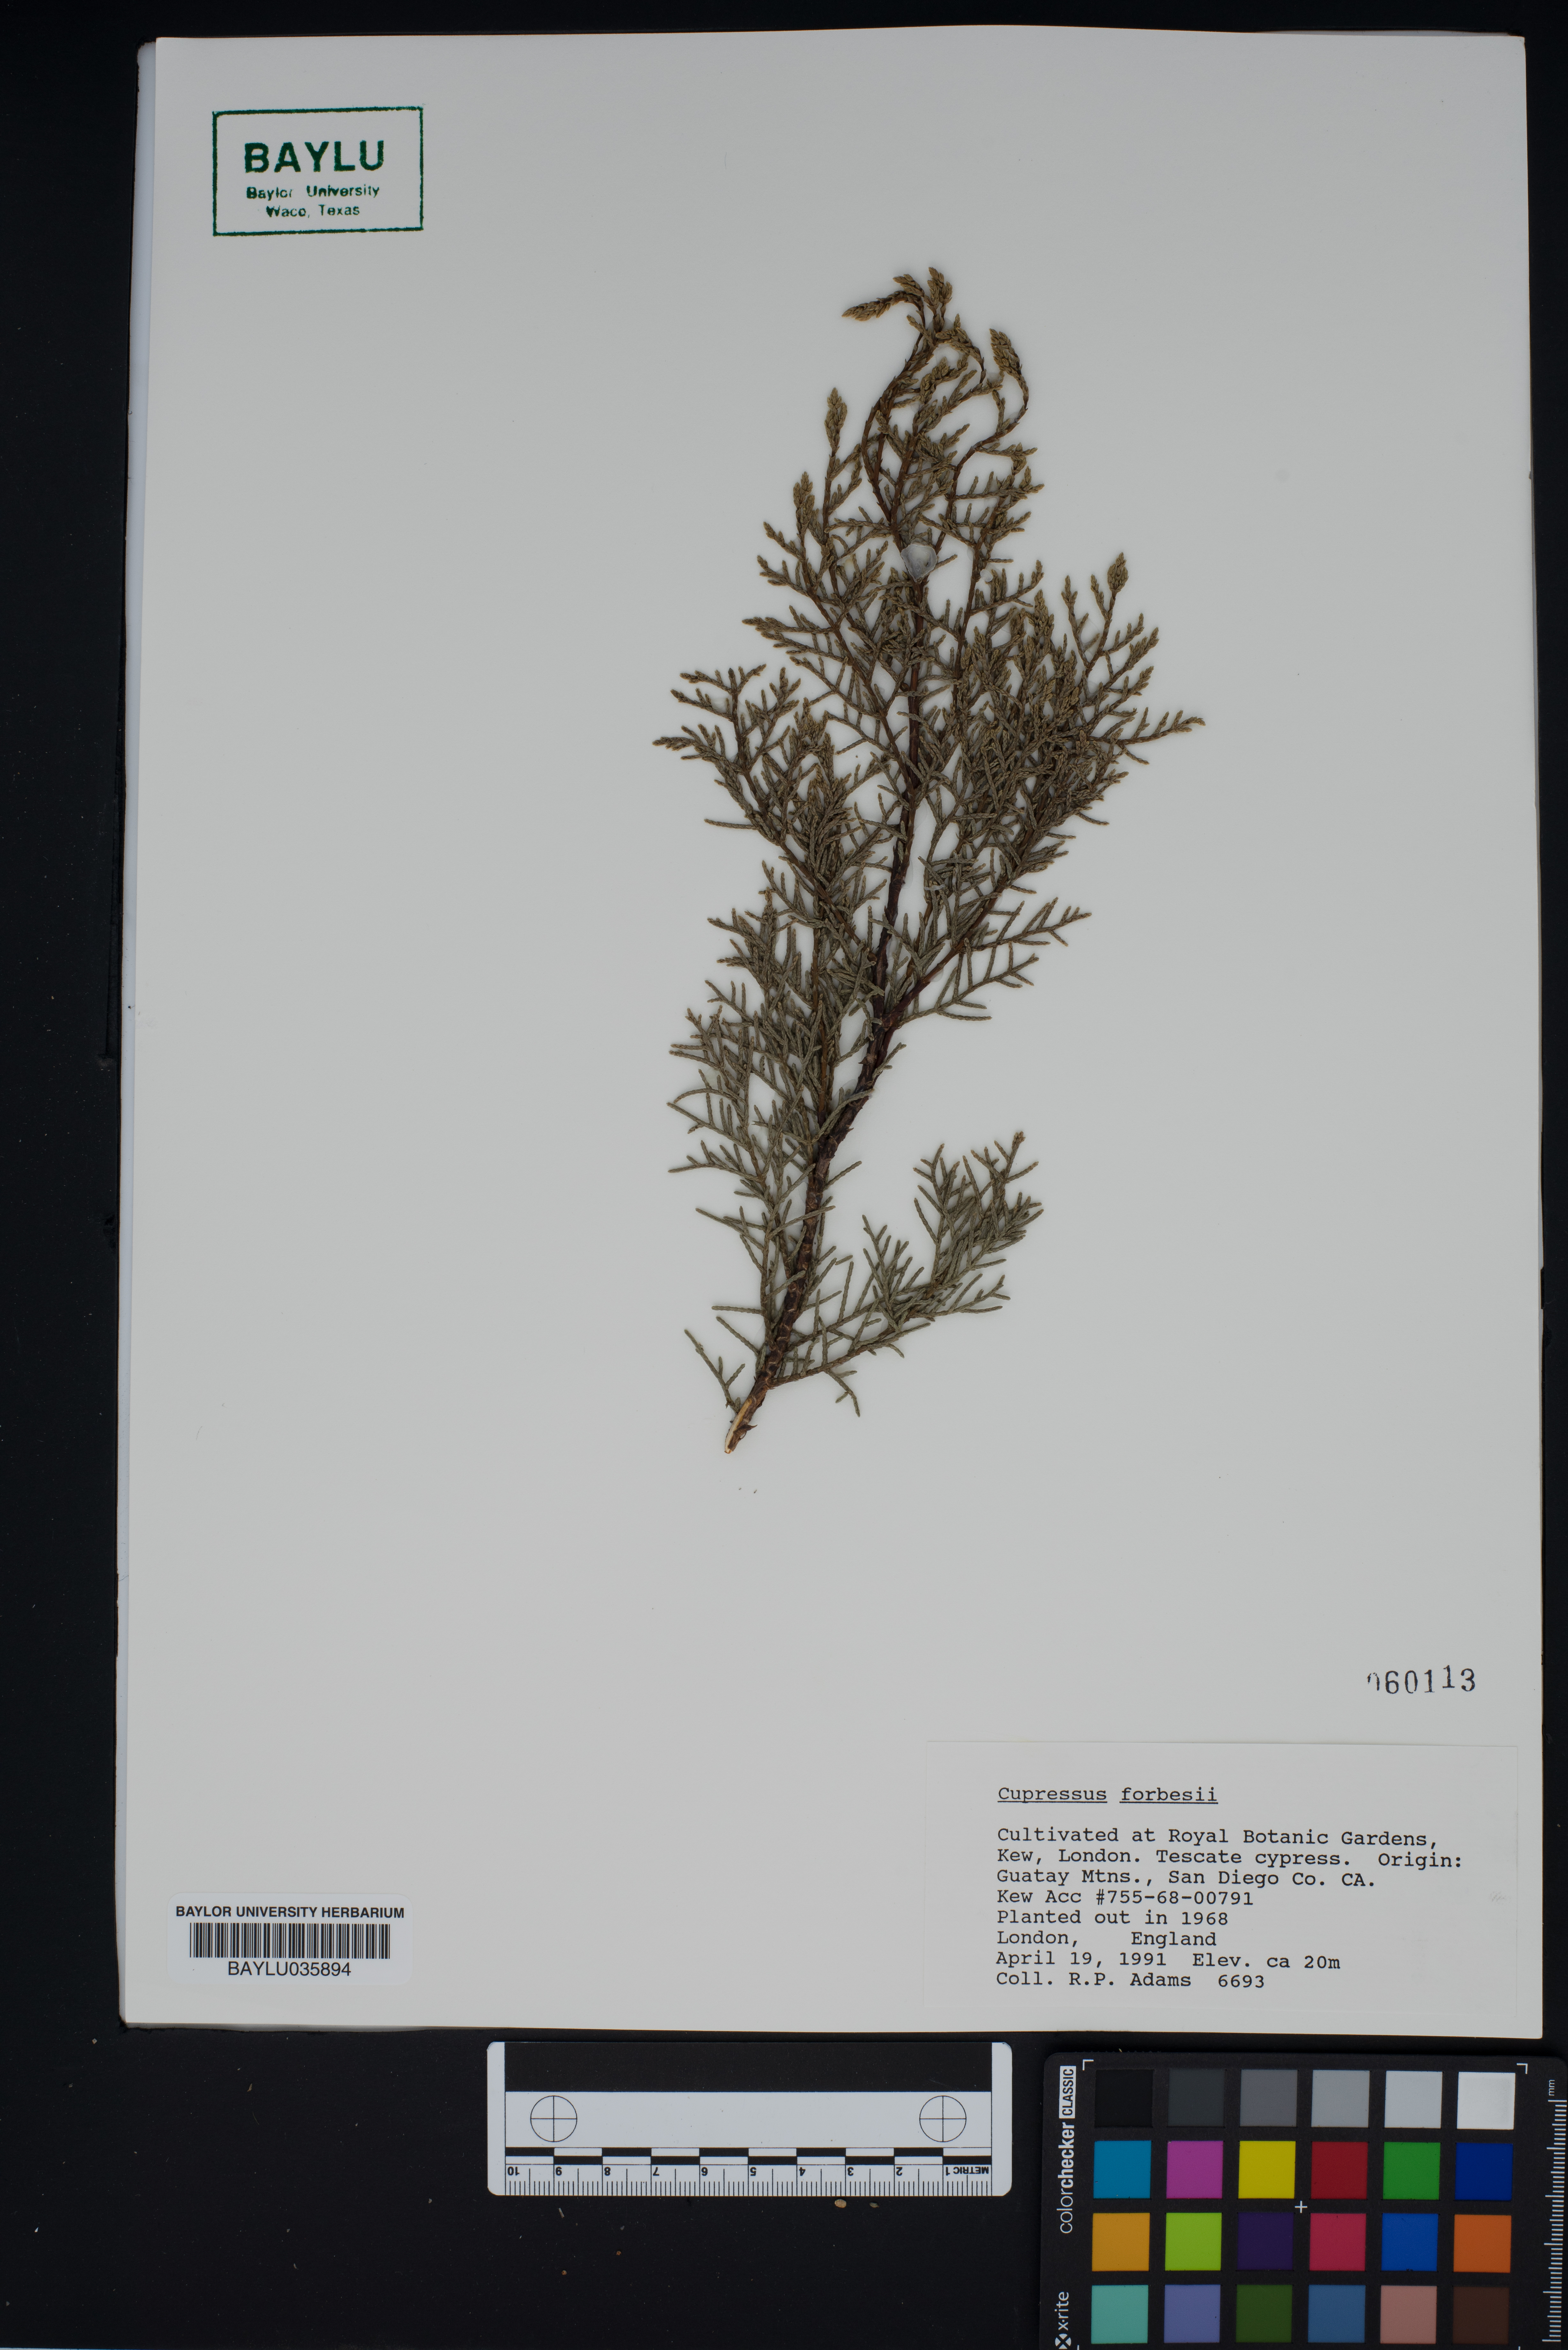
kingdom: Plantae
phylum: Tracheophyta
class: Pinopsida
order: Pinales
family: Cupressaceae
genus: Cupressus
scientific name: Cupressus guadalupensis
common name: Forbes cypress
